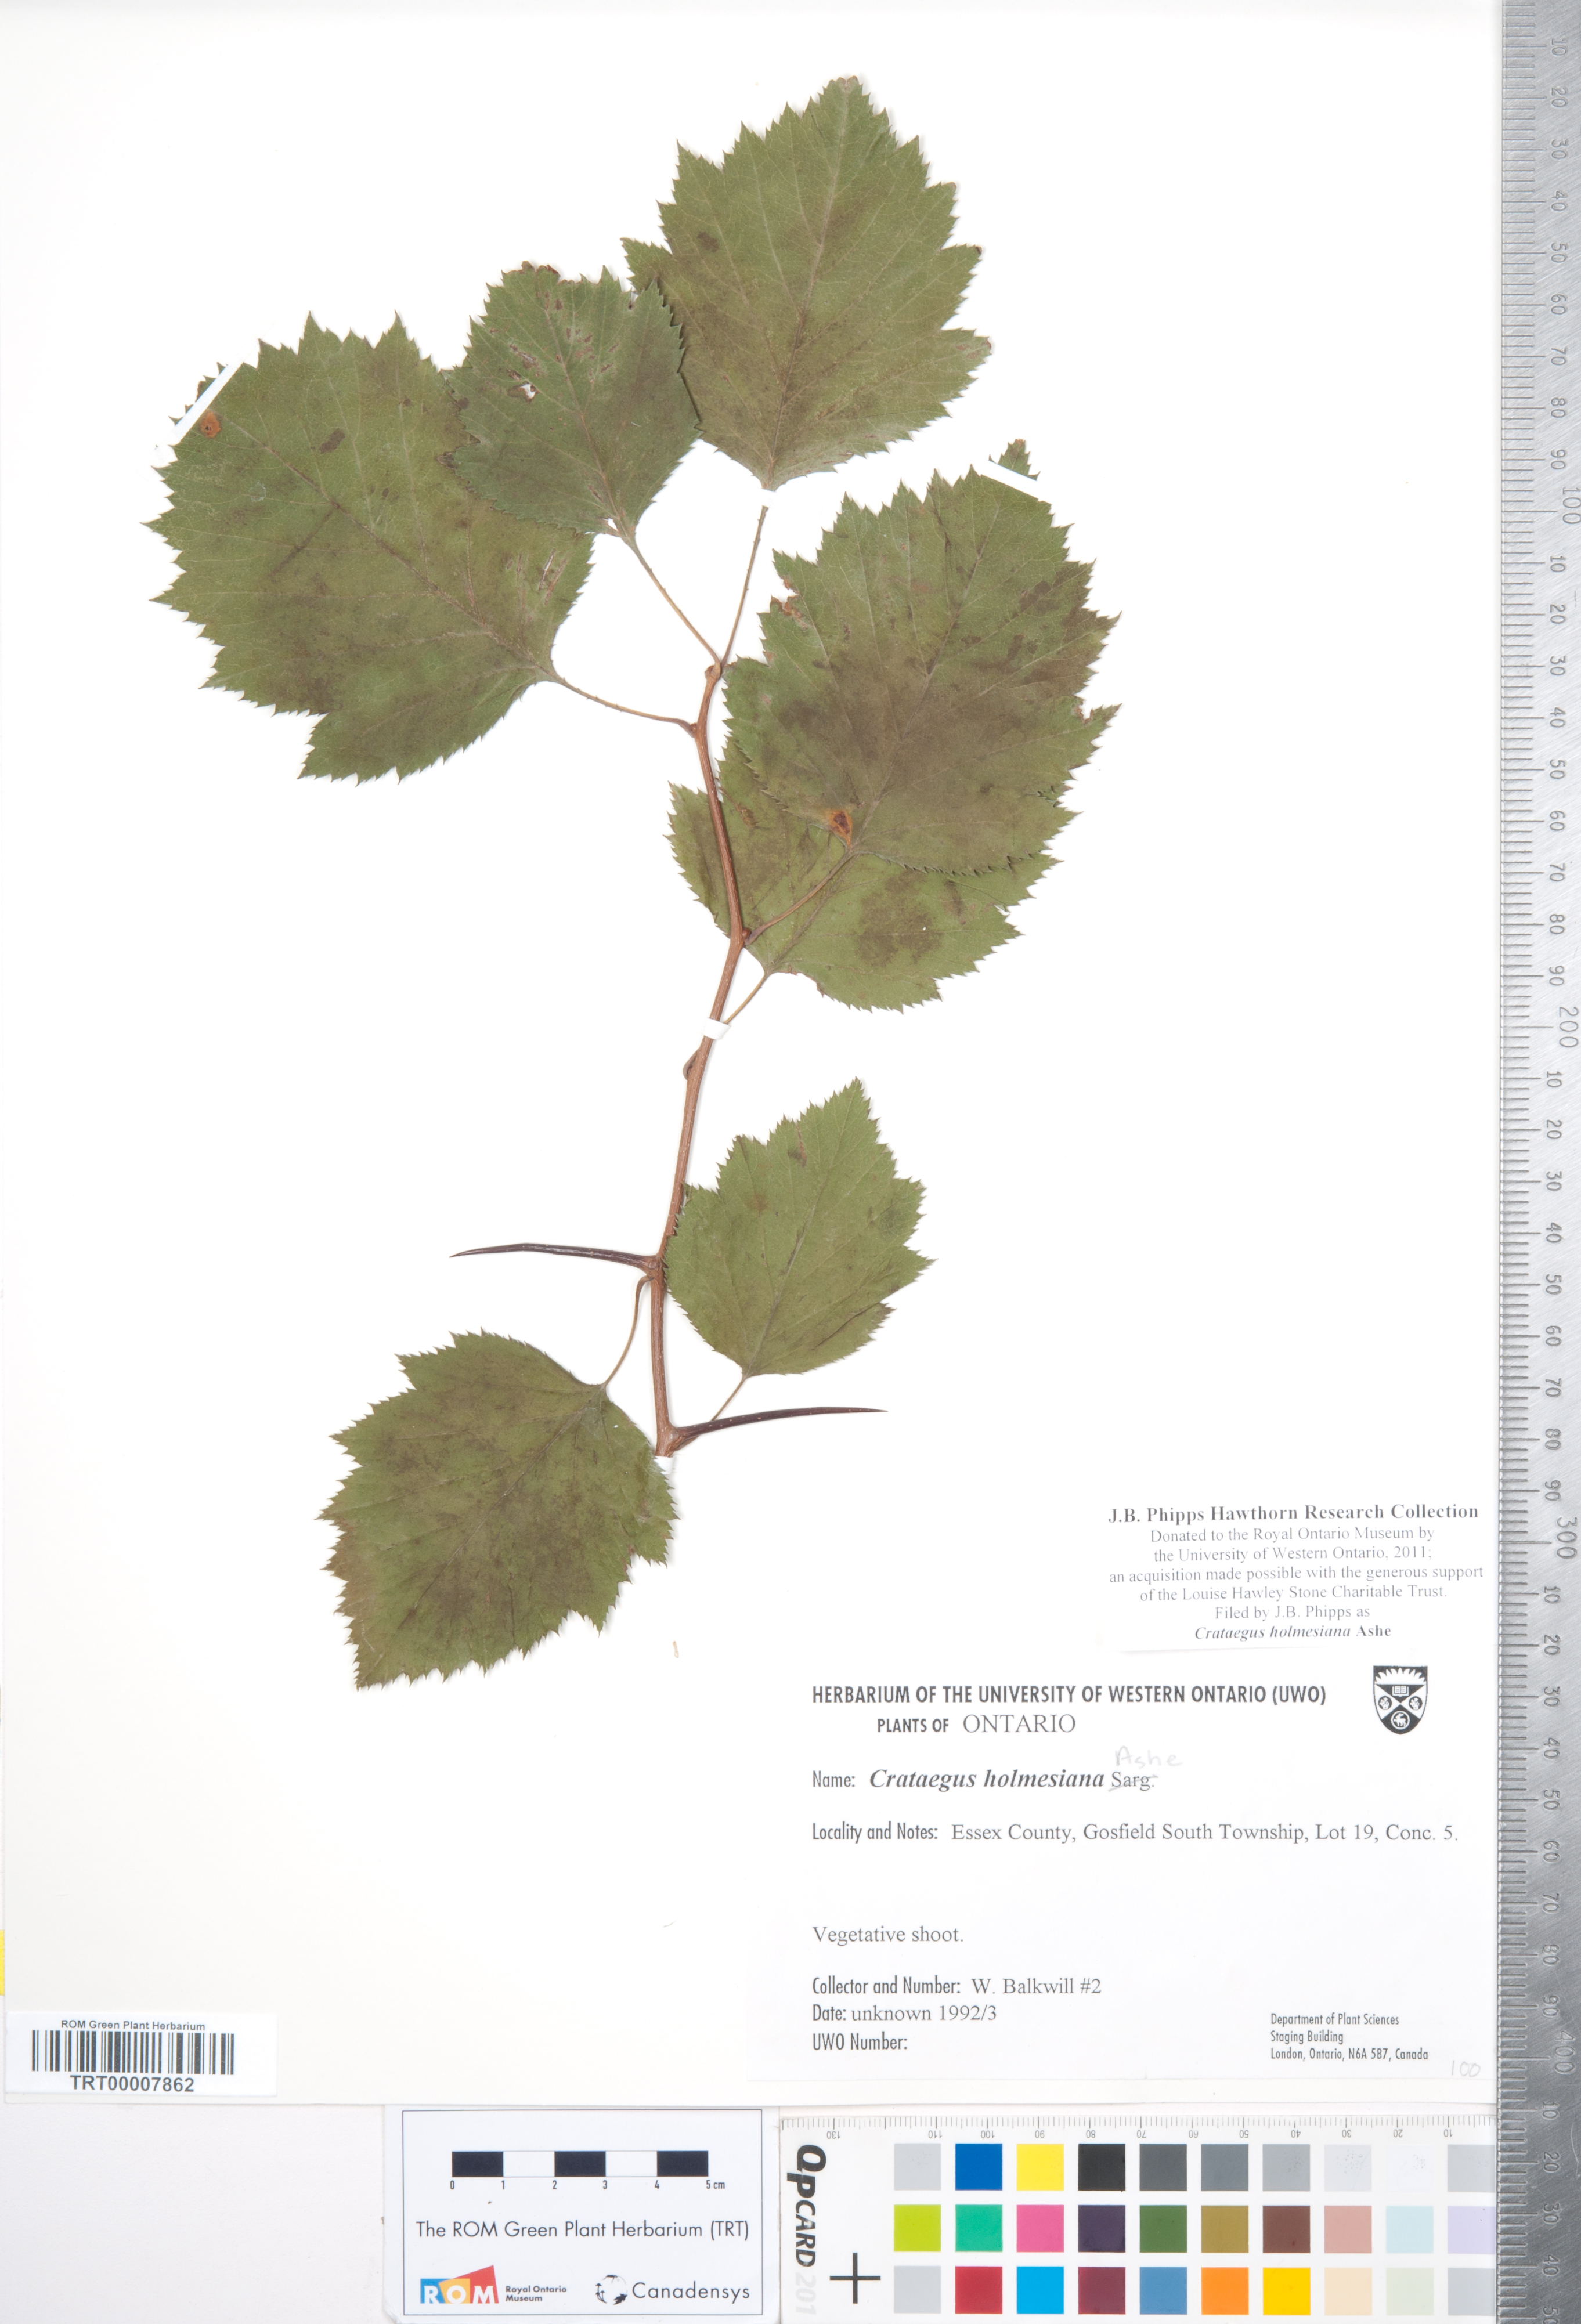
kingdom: Plantae
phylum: Tracheophyta
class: Magnoliopsida
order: Rosales
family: Rosaceae
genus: Crataegus
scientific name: Crataegus holmesiana
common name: Holmes' hawthorn
